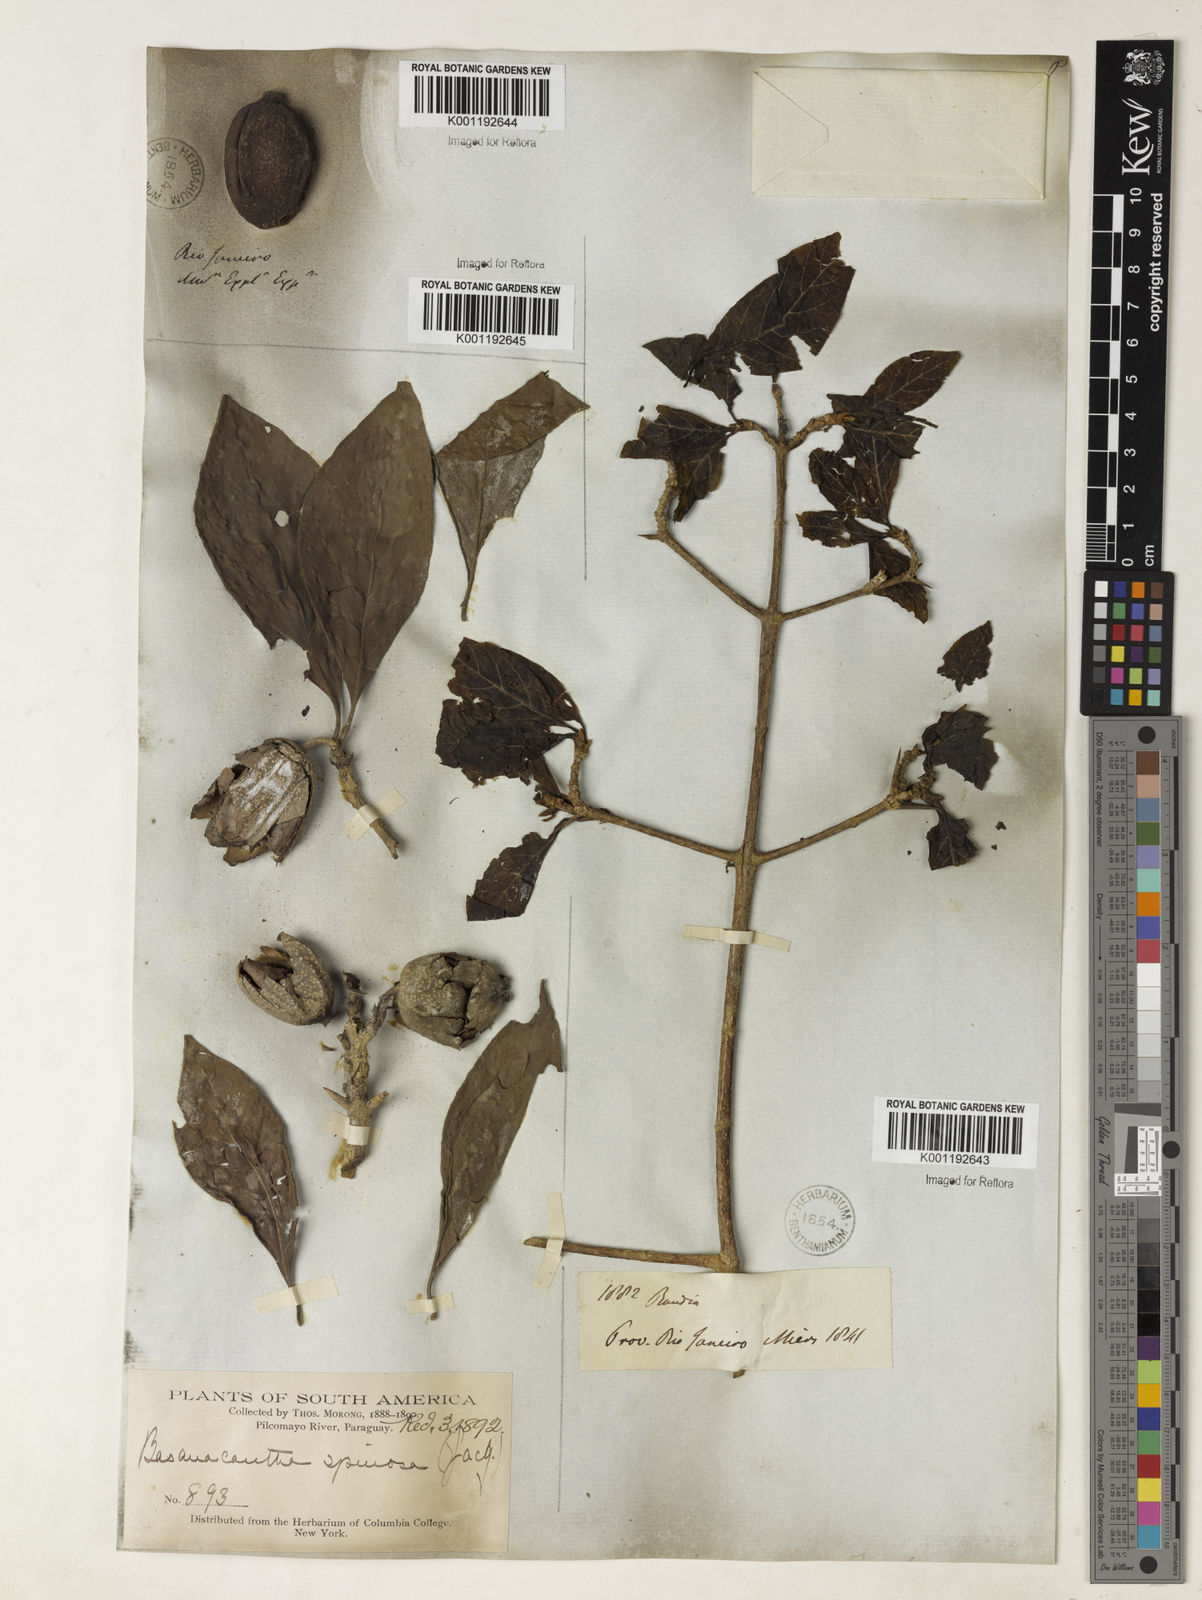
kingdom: Plantae
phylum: Tracheophyta
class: Magnoliopsida
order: Gentianales
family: Rubiaceae
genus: Randia
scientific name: Randia armata
